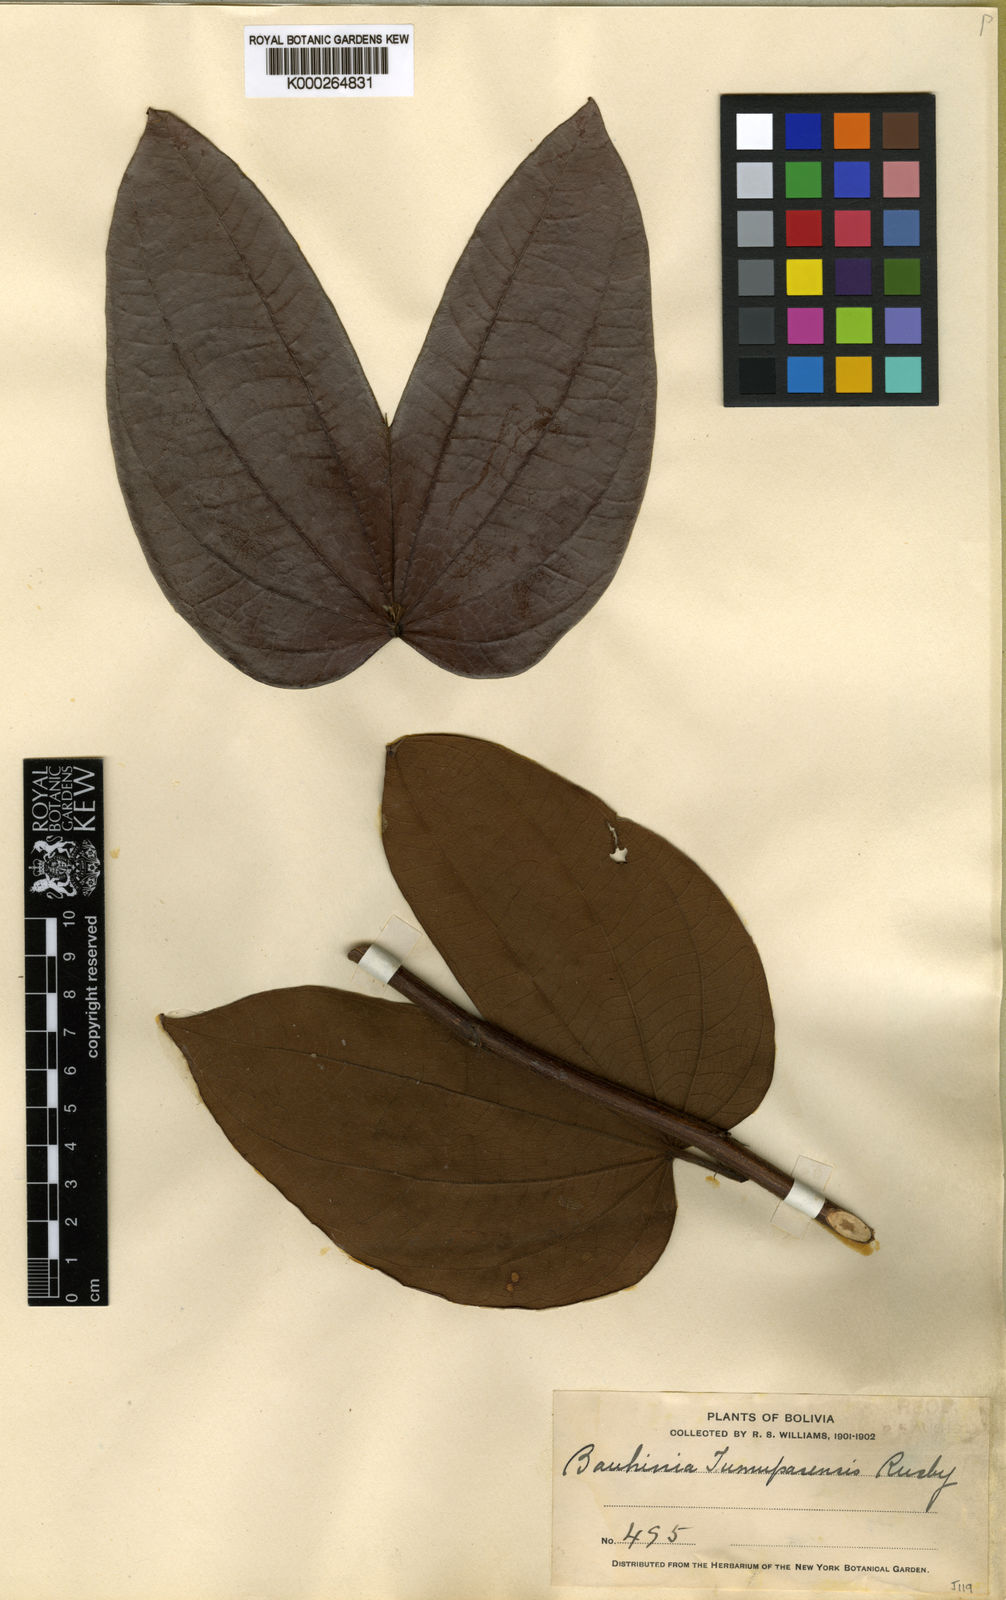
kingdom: Plantae
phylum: Tracheophyta
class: Magnoliopsida
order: Fabales
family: Fabaceae
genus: Bauhinia
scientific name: Bauhinia conwayi
